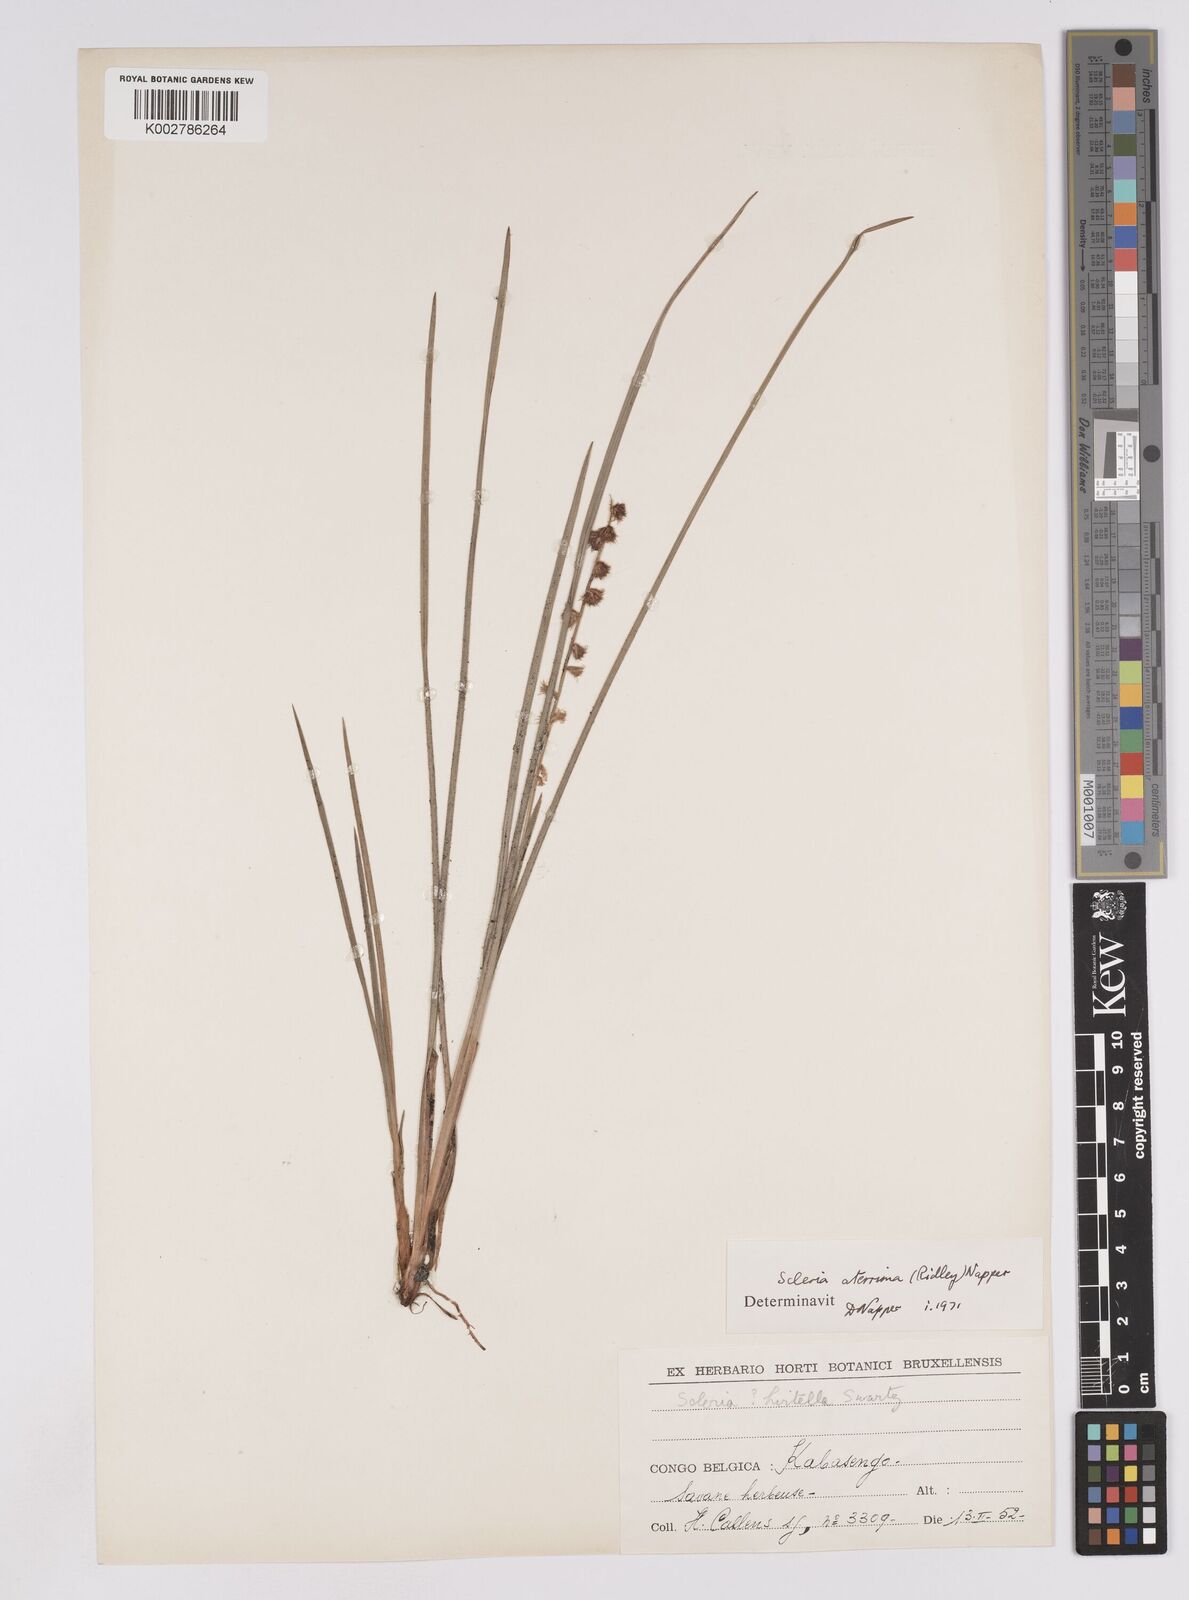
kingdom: Plantae
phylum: Tracheophyta
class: Liliopsida
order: Poales
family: Cyperaceae
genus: Scleria
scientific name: Scleria catophylla
